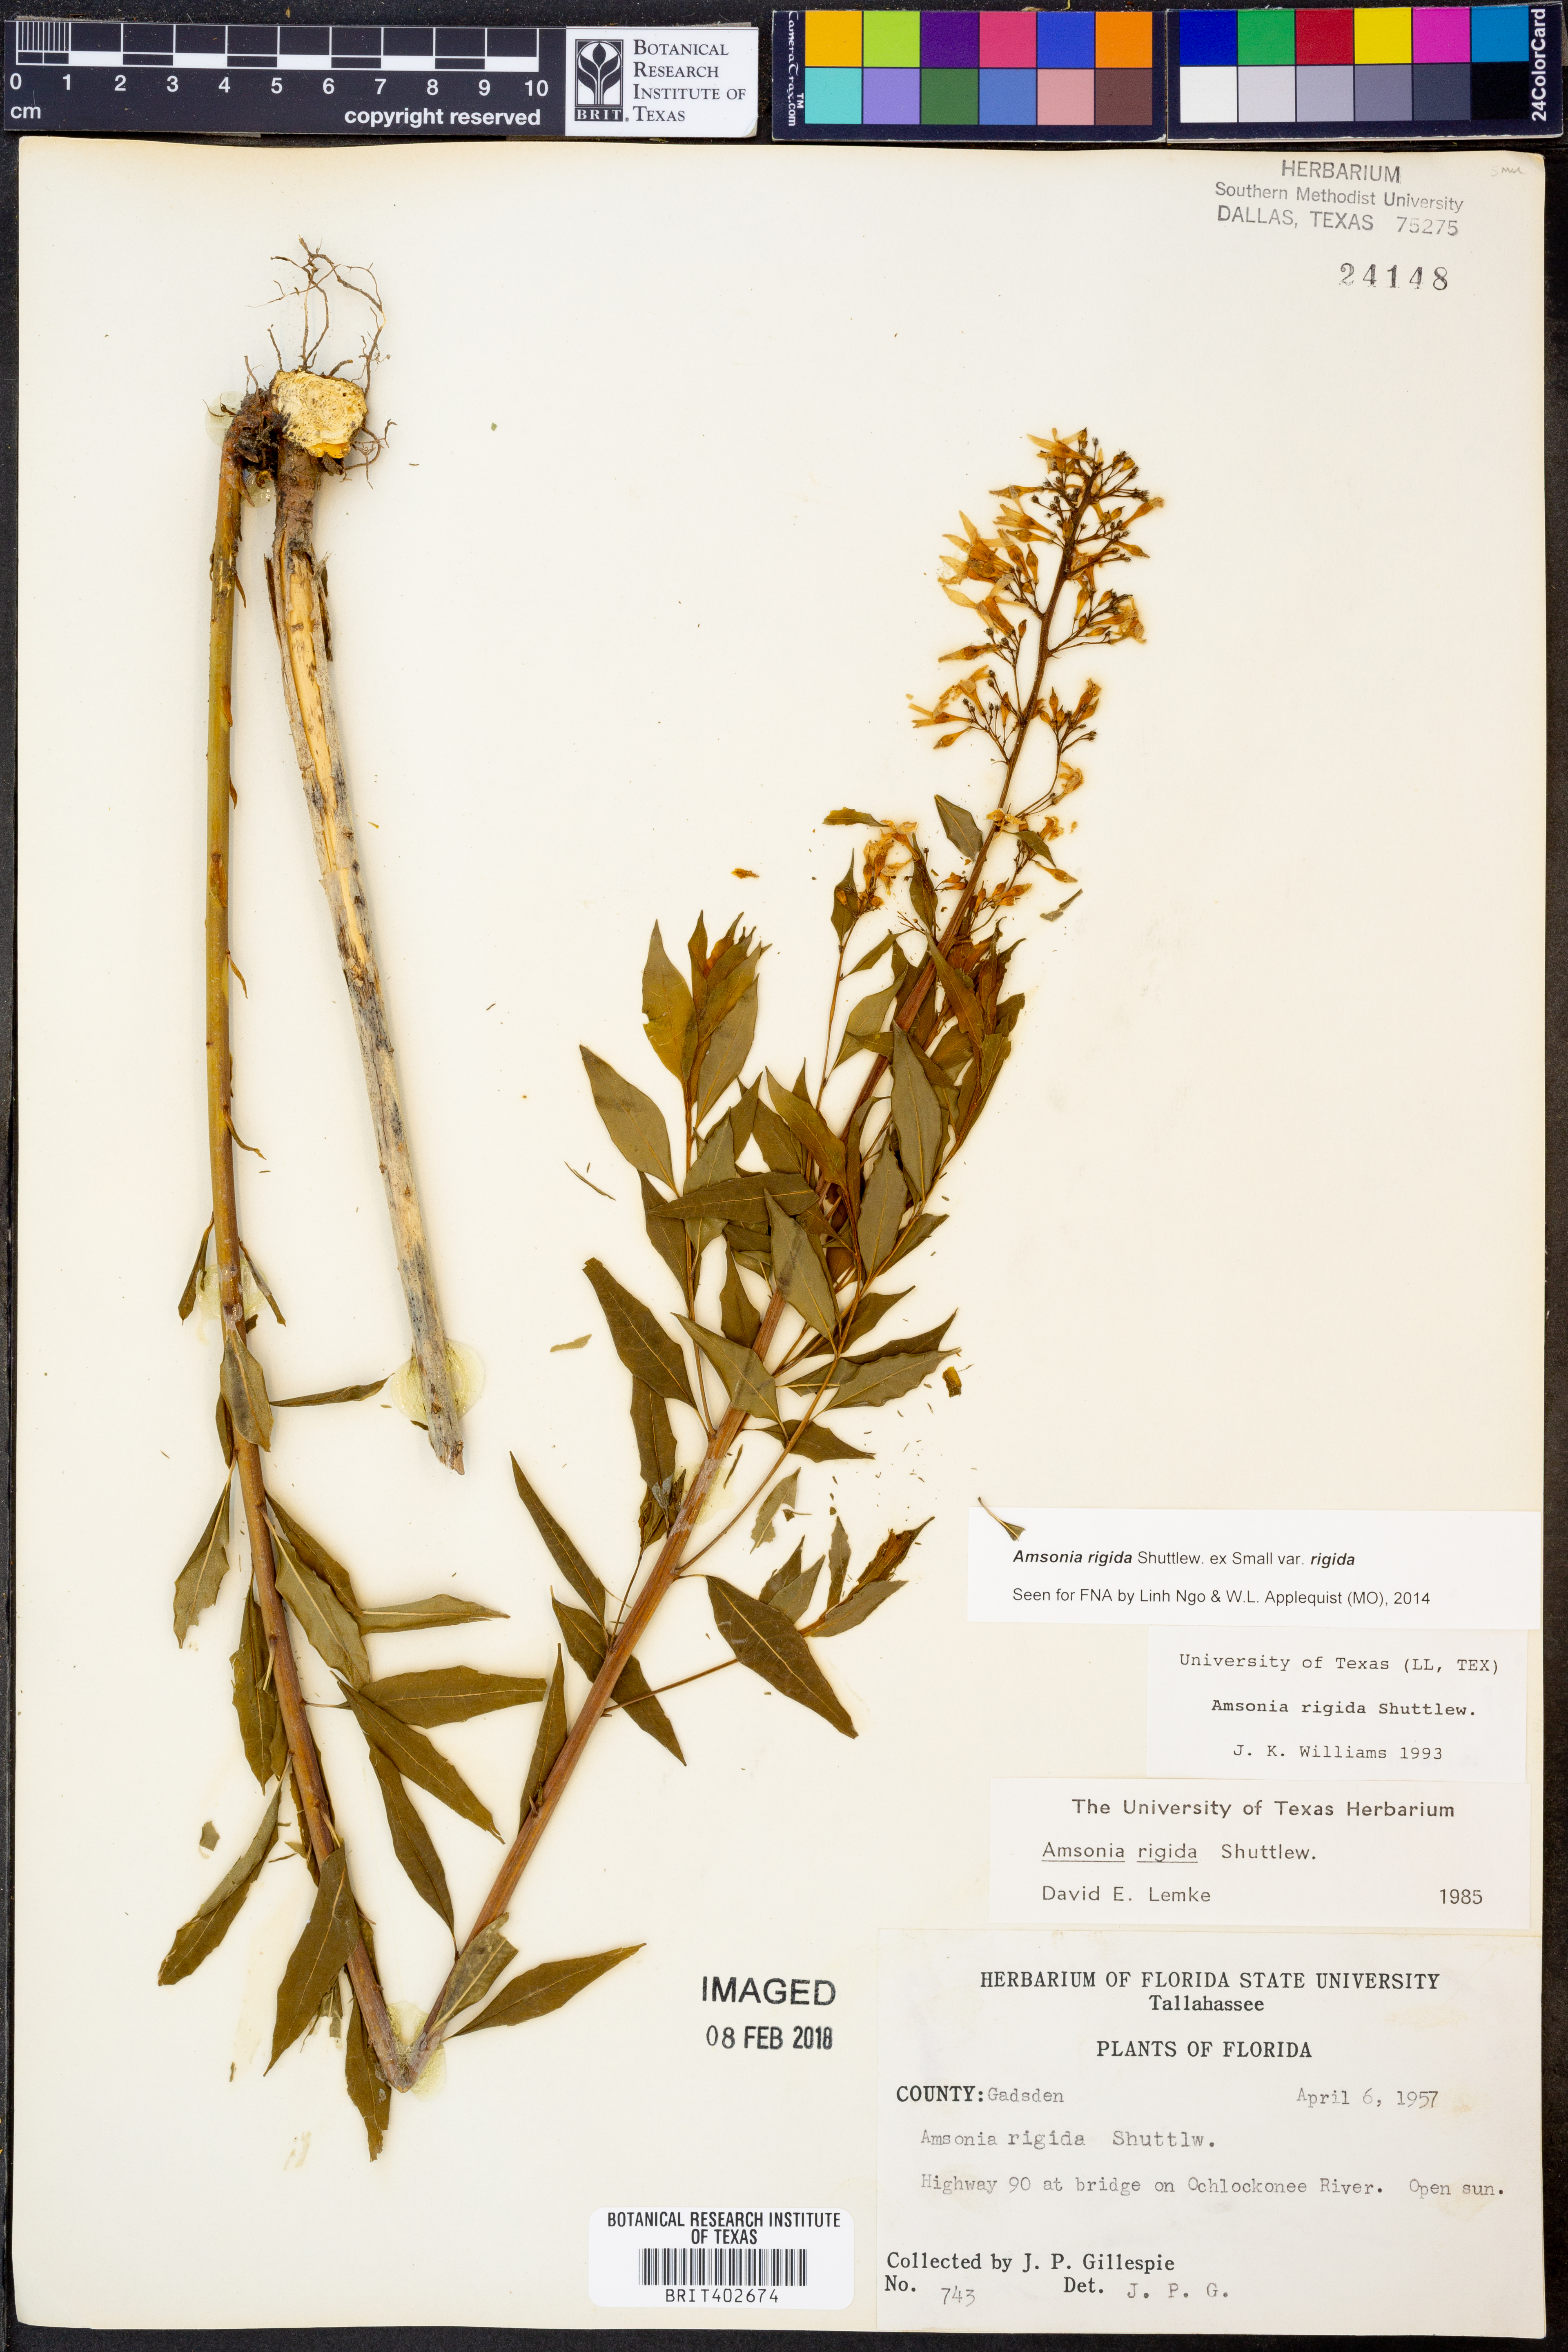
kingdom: Plantae
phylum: Tracheophyta
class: Magnoliopsida
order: Gentianales
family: Apocynaceae
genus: Amsonia
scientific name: Amsonia rigida
